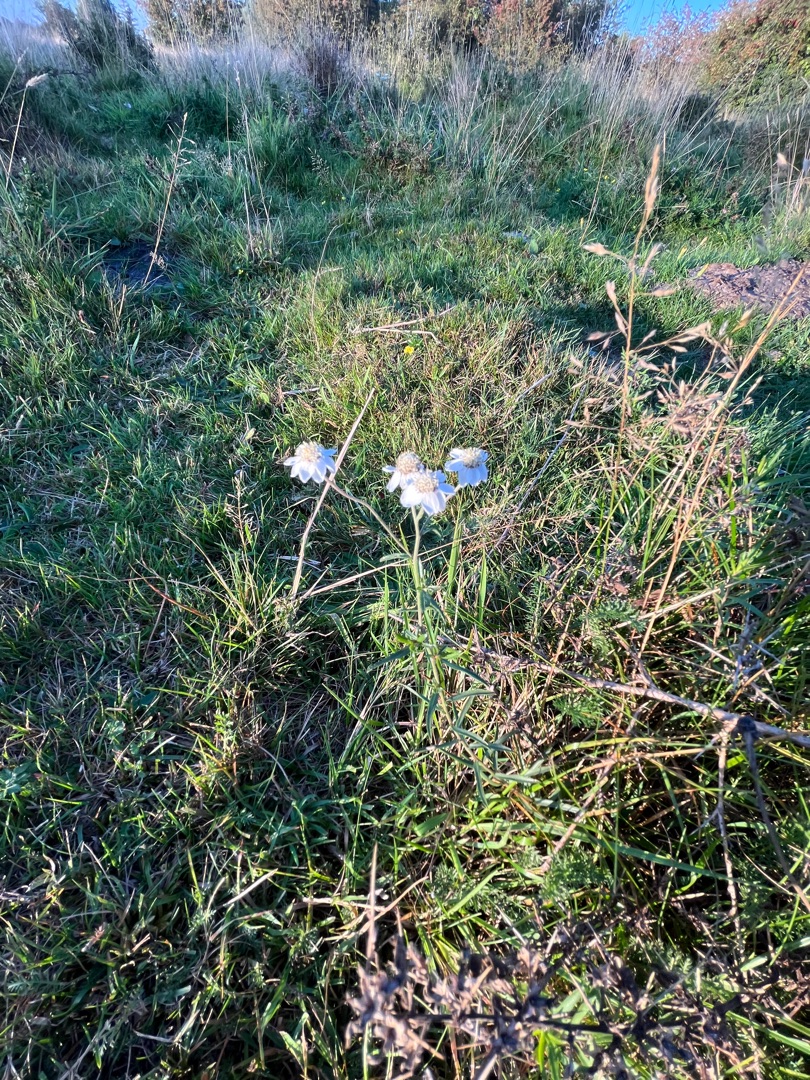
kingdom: Plantae
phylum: Tracheophyta
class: Magnoliopsida
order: Asterales
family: Asteraceae
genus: Achillea
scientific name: Achillea ptarmica
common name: Nyse-røllike
